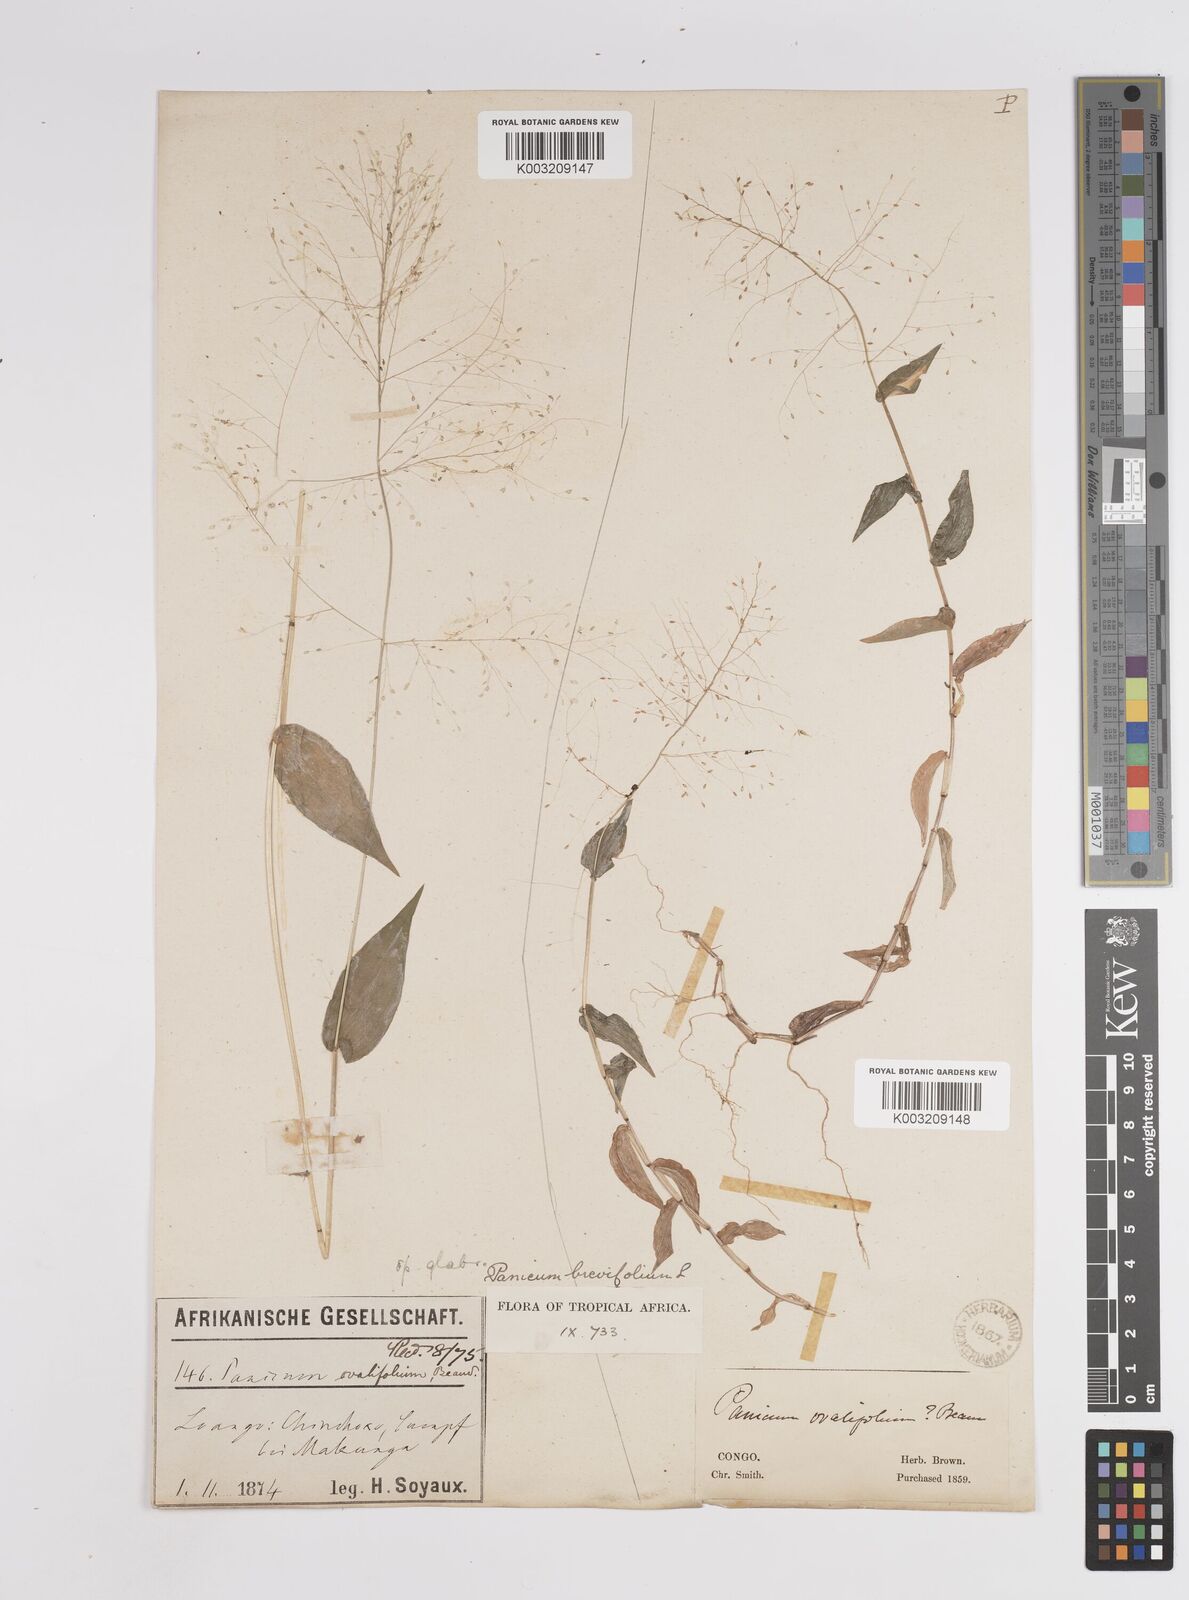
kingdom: Plantae
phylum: Tracheophyta
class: Liliopsida
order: Poales
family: Poaceae
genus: Panicum
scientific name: Panicum brevifolium
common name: Shortleaf panic grass
